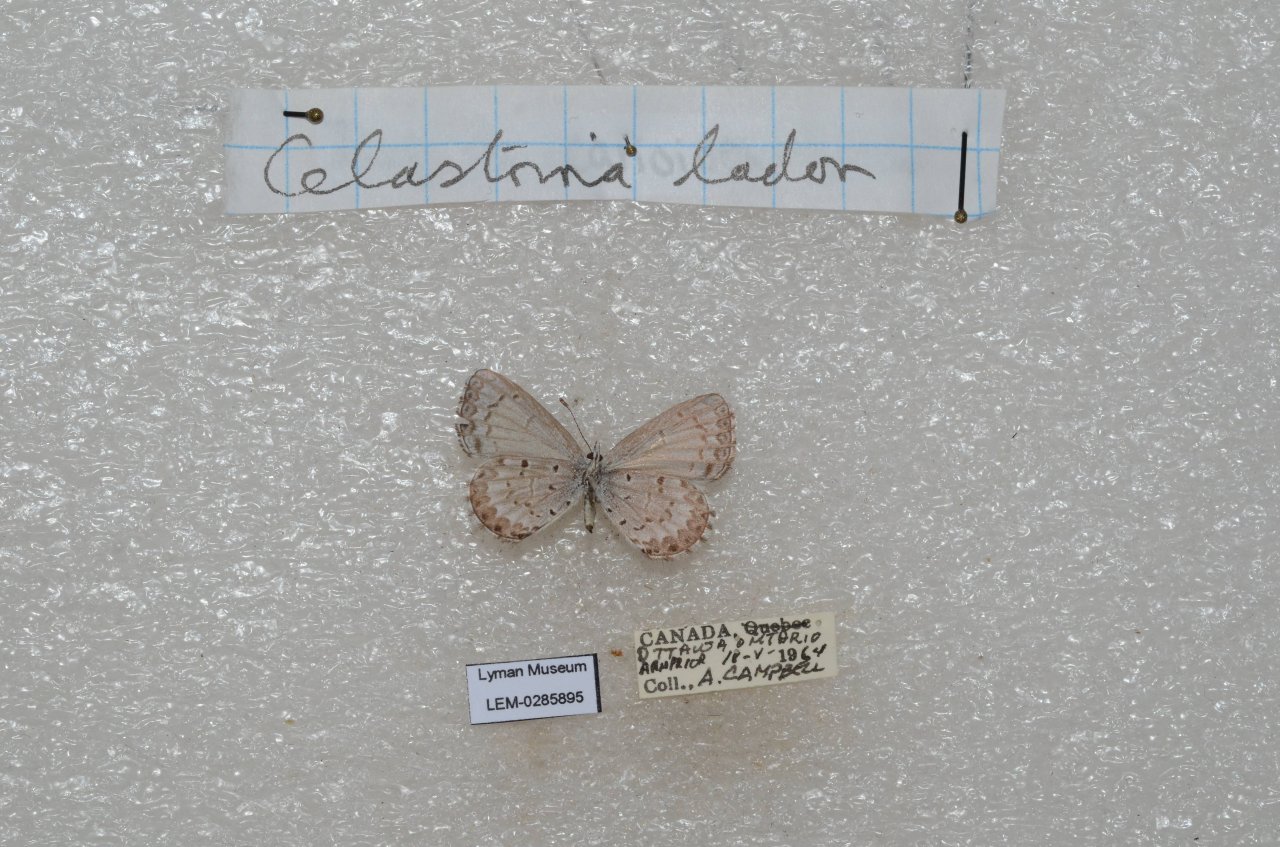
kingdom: Animalia
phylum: Arthropoda
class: Insecta
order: Lepidoptera
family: Lycaenidae
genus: Celastrina
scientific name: Celastrina lucia
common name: Northern Spring Azure
